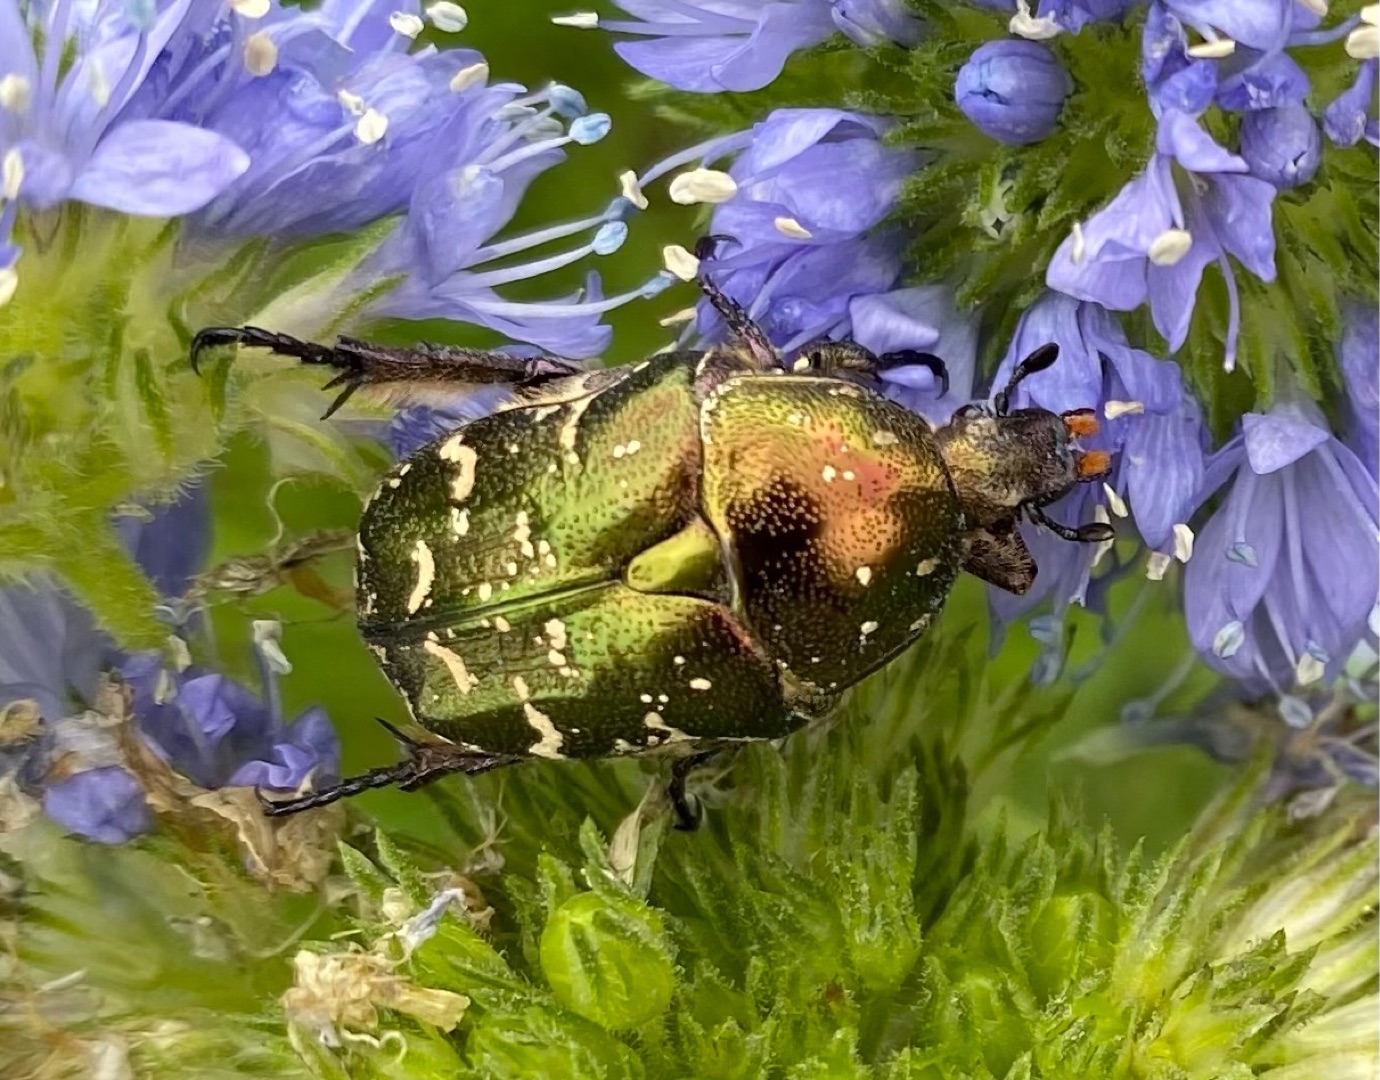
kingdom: Animalia
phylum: Arthropoda
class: Insecta
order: Coleoptera
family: Scarabaeidae
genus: Protaetia
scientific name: Protaetia cuprea
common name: Kobberguldbasse
